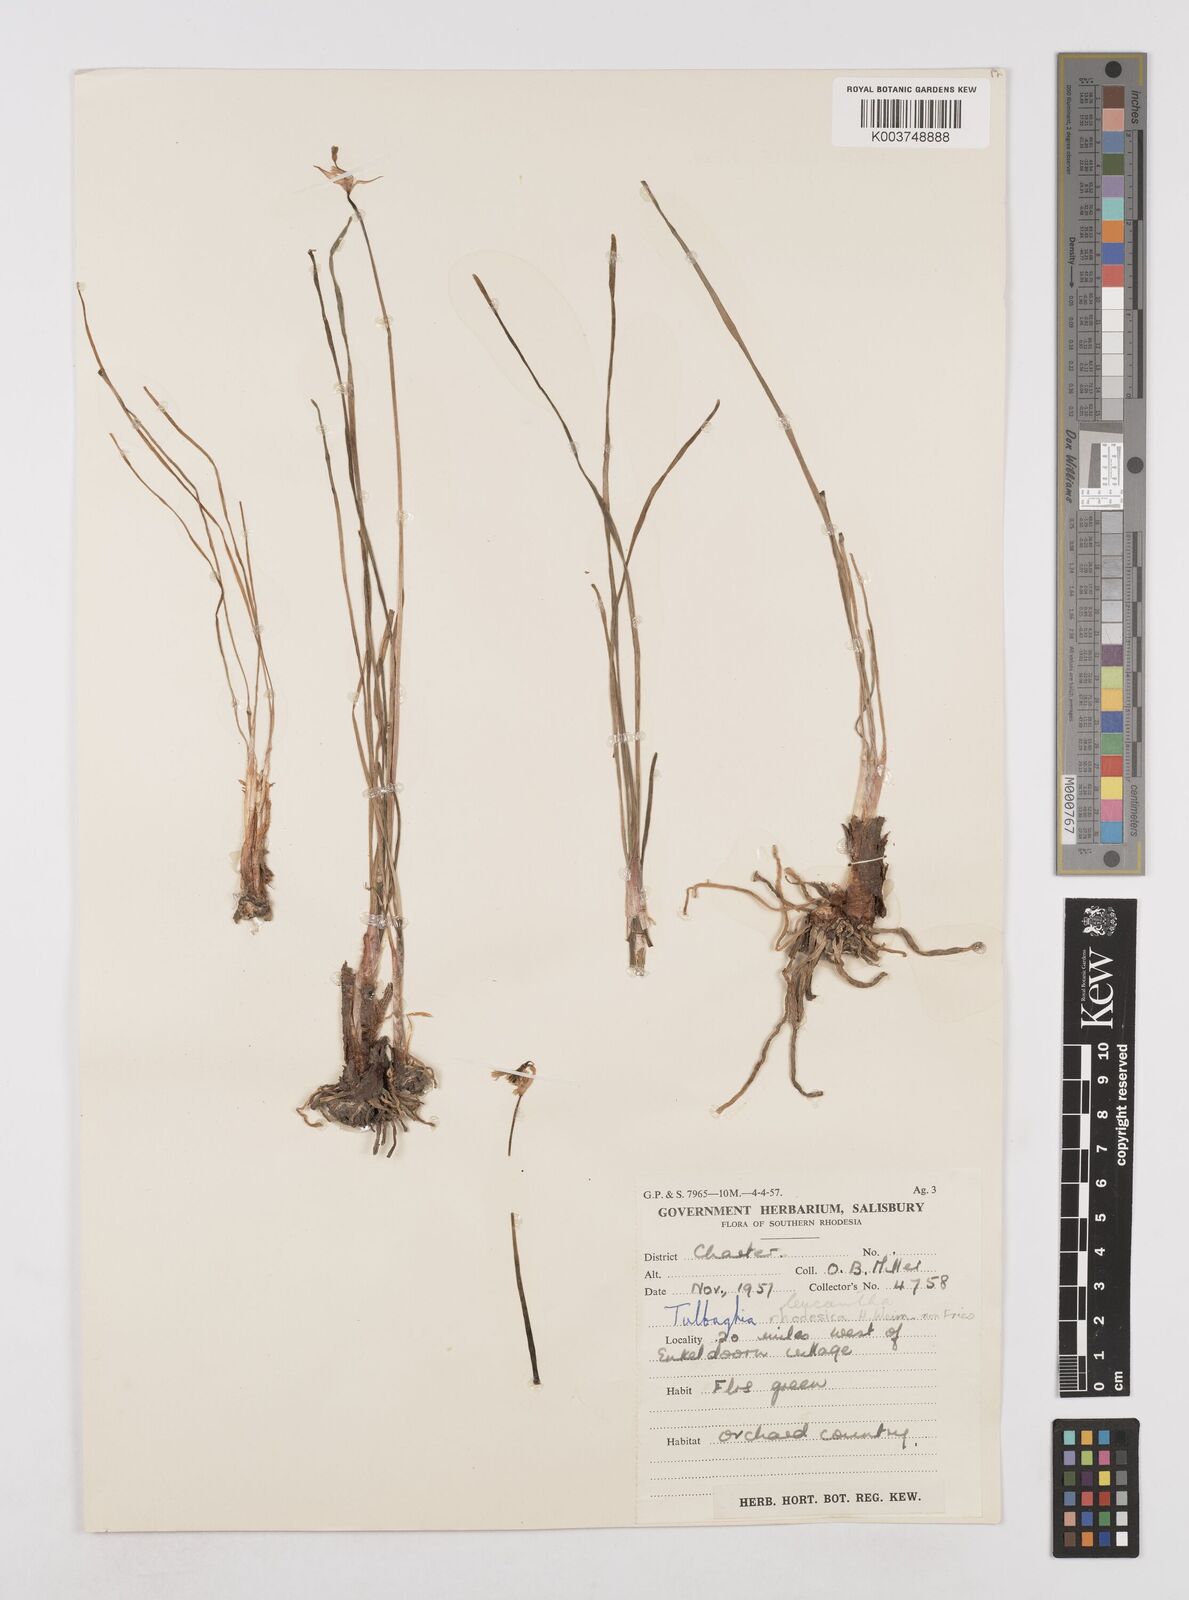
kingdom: Plantae
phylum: Tracheophyta
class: Liliopsida
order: Asparagales
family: Amaryllidaceae
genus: Tulbaghia
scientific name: Tulbaghia leucantha
